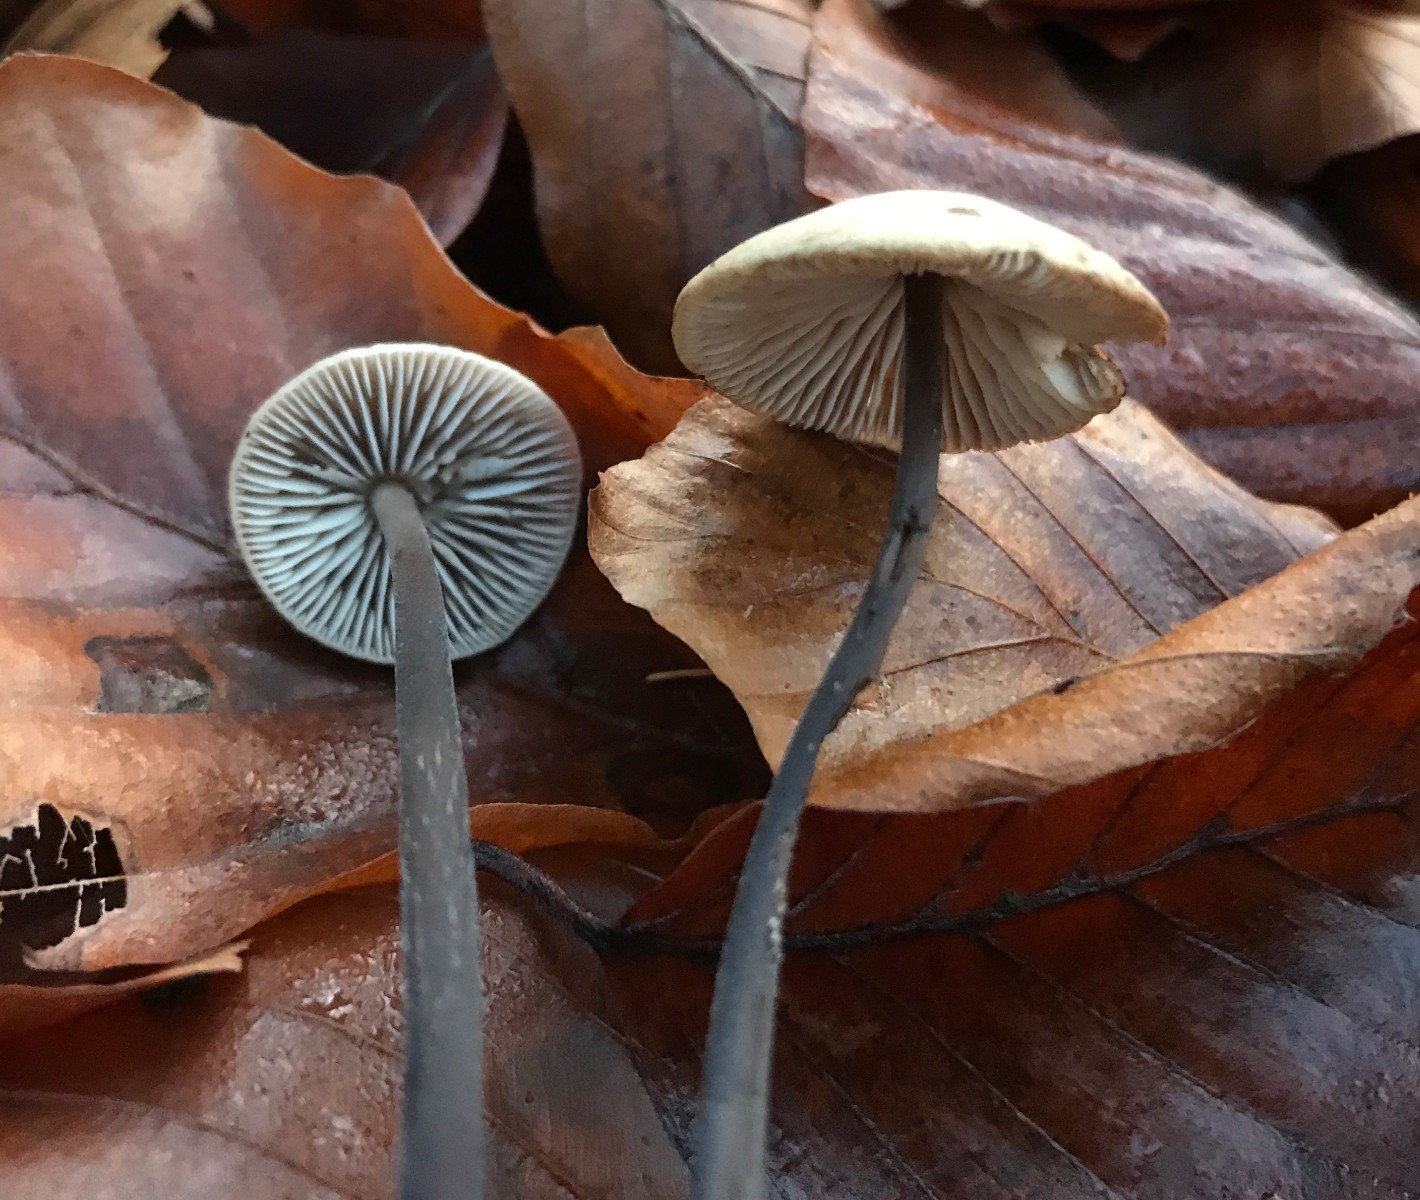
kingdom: Fungi
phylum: Basidiomycota
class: Agaricomycetes
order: Agaricales
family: Omphalotaceae
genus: Mycetinis
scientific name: Mycetinis alliaceus
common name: stor løghat
